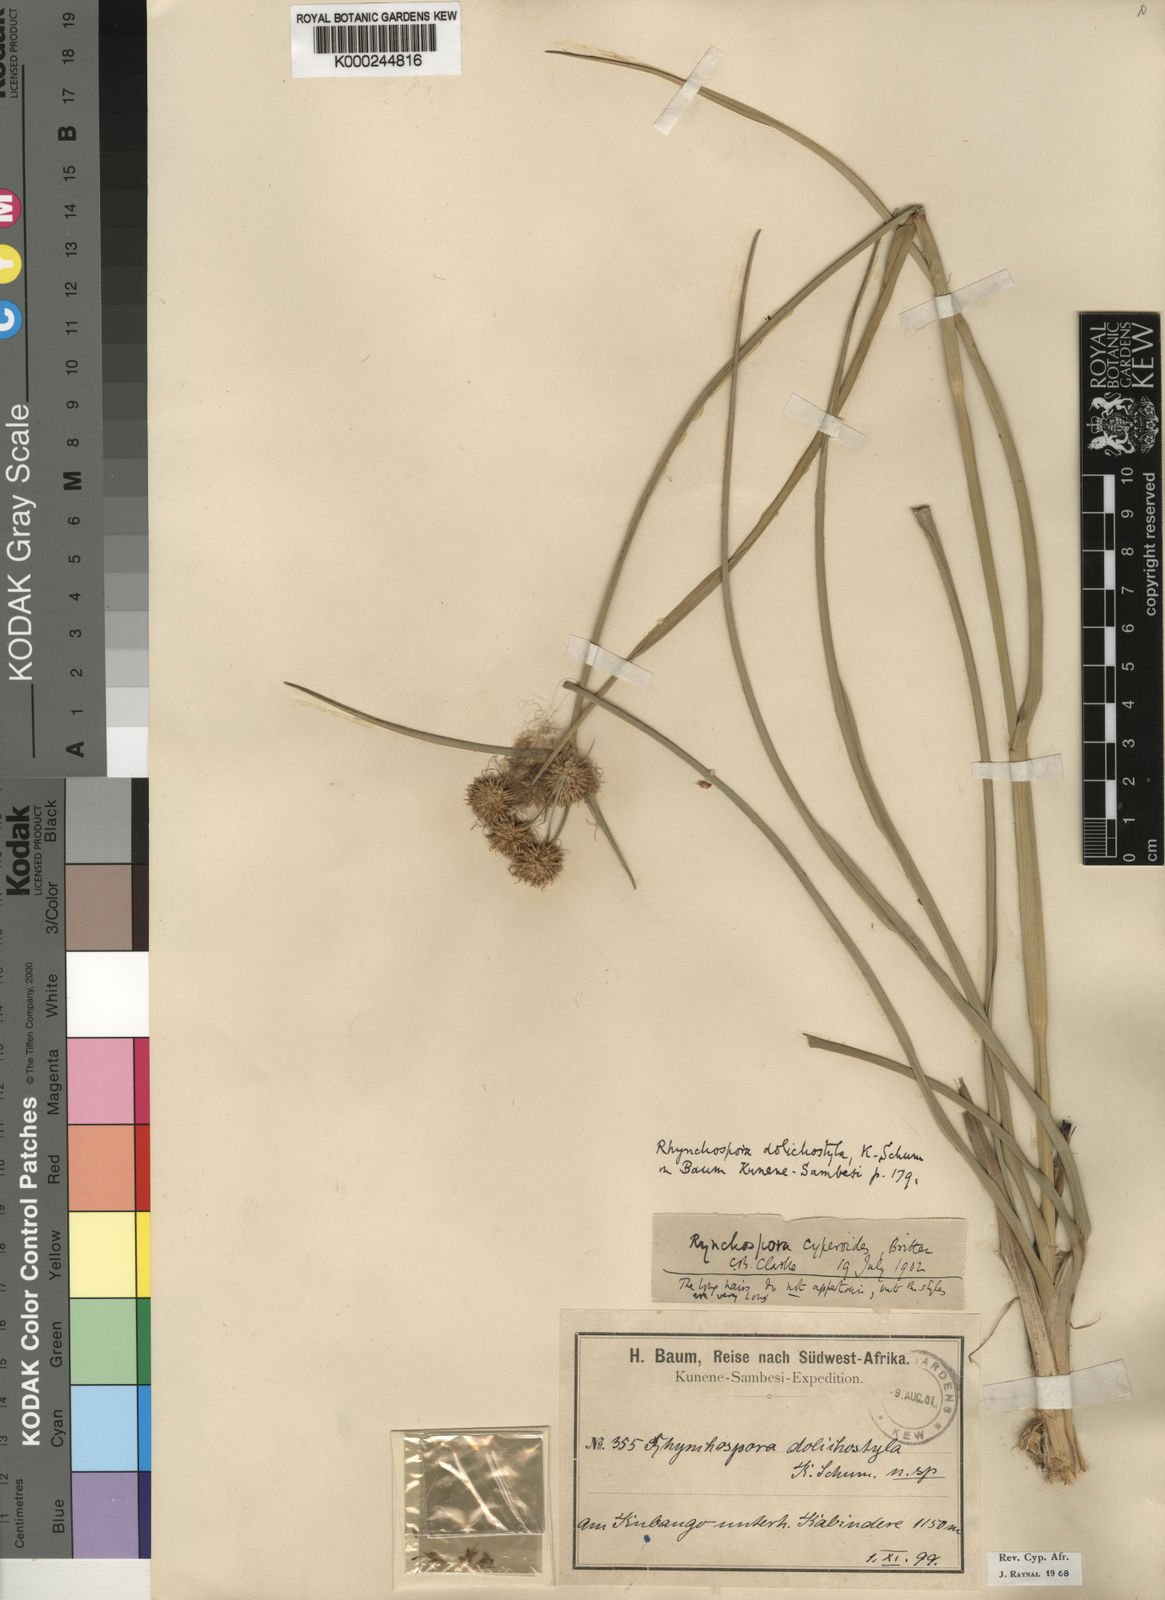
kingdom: Plantae
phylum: Tracheophyta
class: Liliopsida
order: Poales
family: Cyperaceae
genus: Rhynchospora
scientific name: Rhynchospora holoschoenoides
